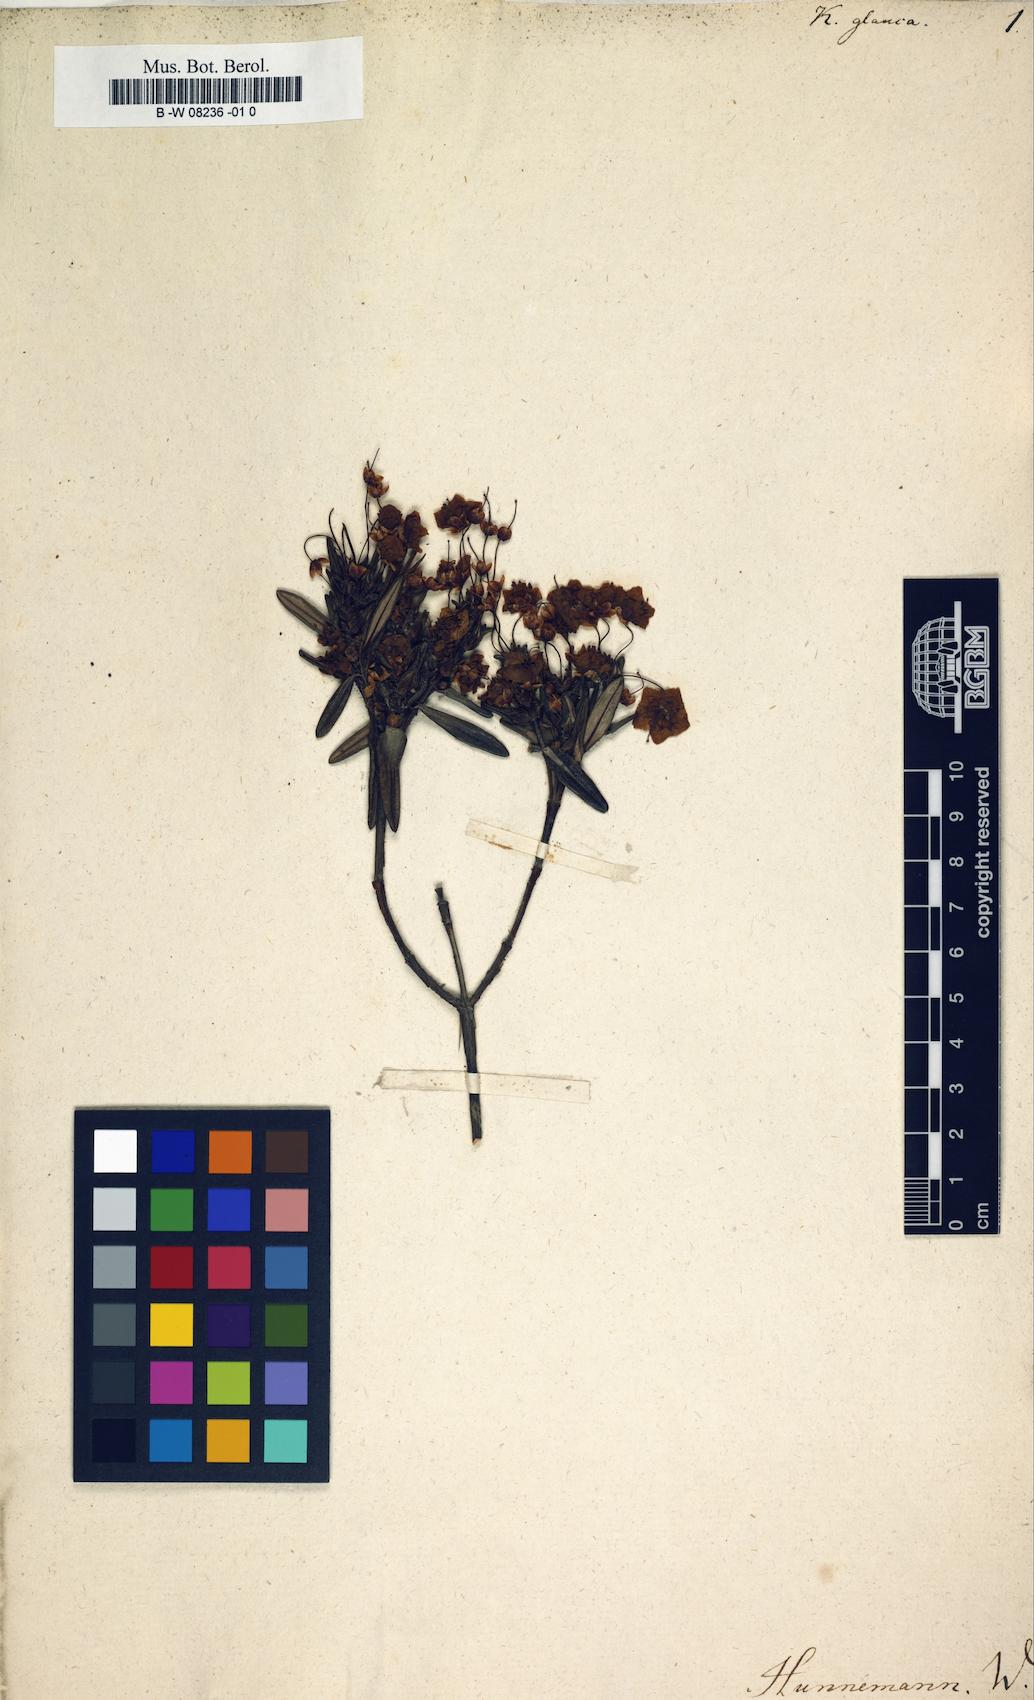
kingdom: Plantae
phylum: Tracheophyta
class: Magnoliopsida
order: Ericales
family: Ericaceae
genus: Kalmia
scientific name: Kalmia polifolia
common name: Bog-laurel
